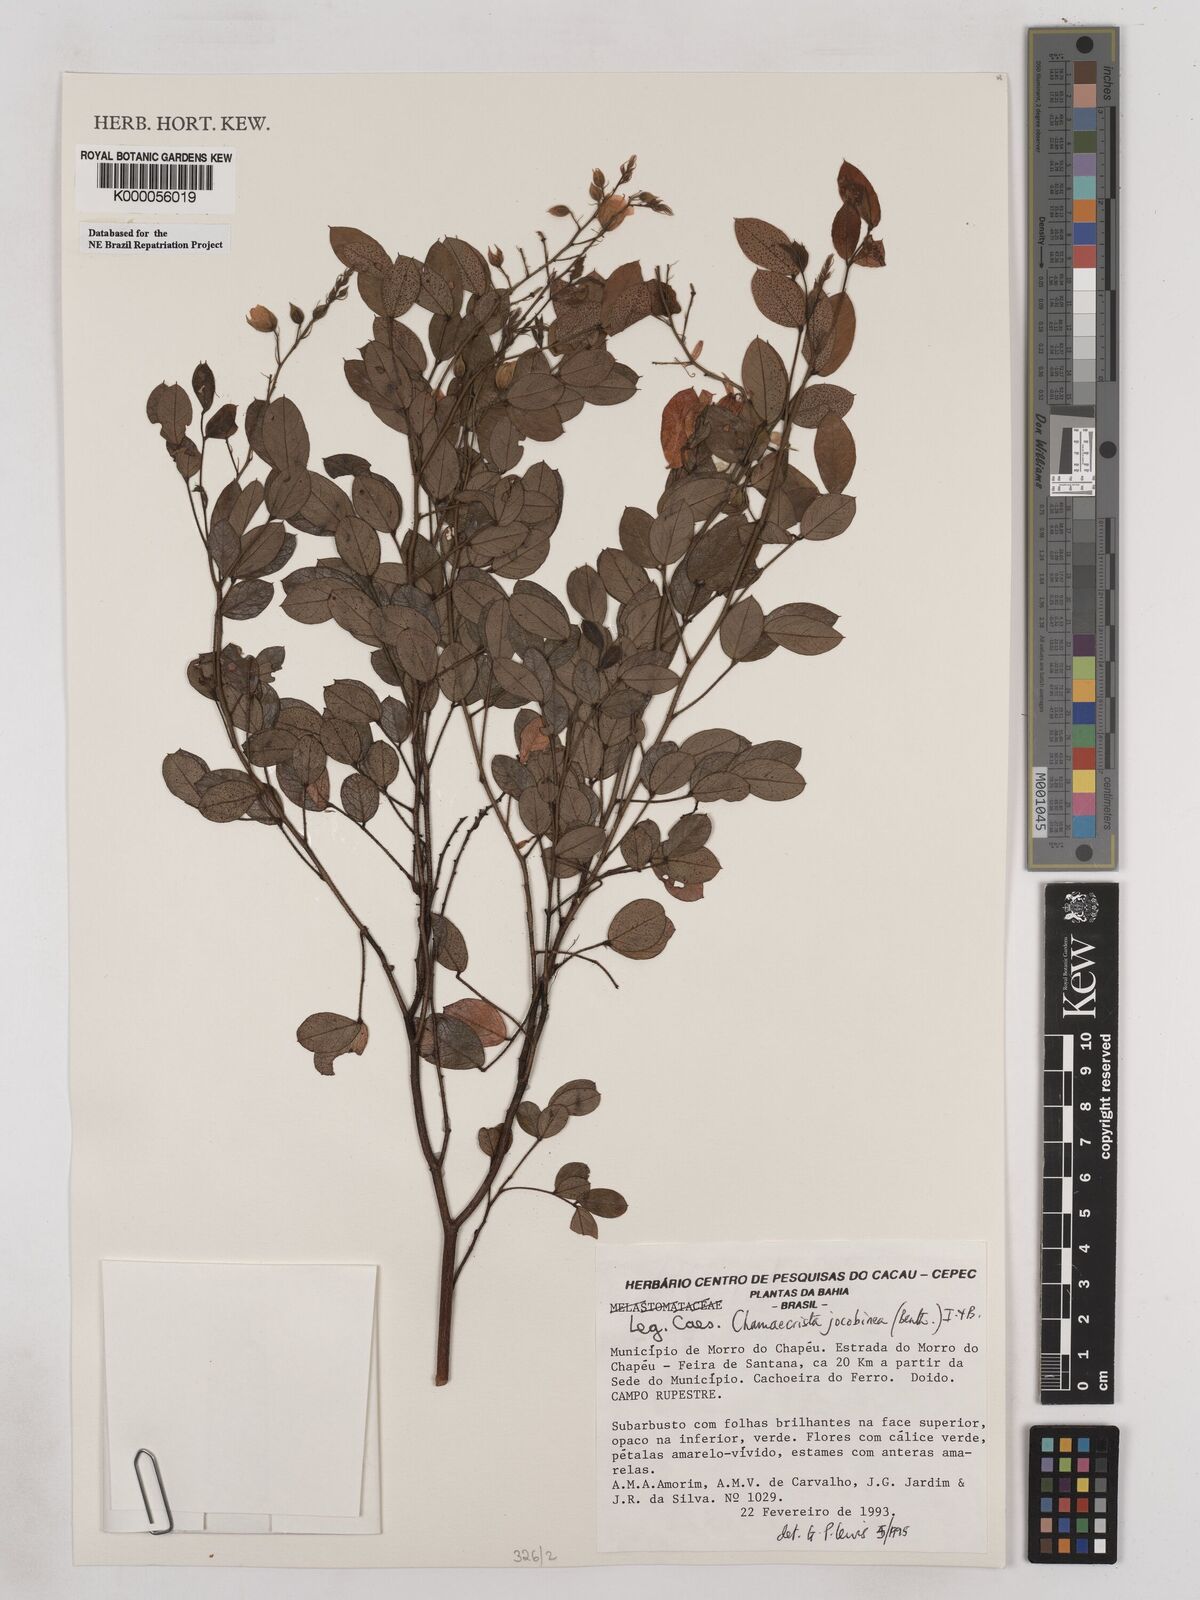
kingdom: Plantae
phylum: Tracheophyta
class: Magnoliopsida
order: Fabales
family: Fabaceae
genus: Chamaecrista
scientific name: Chamaecrista jacobinea
